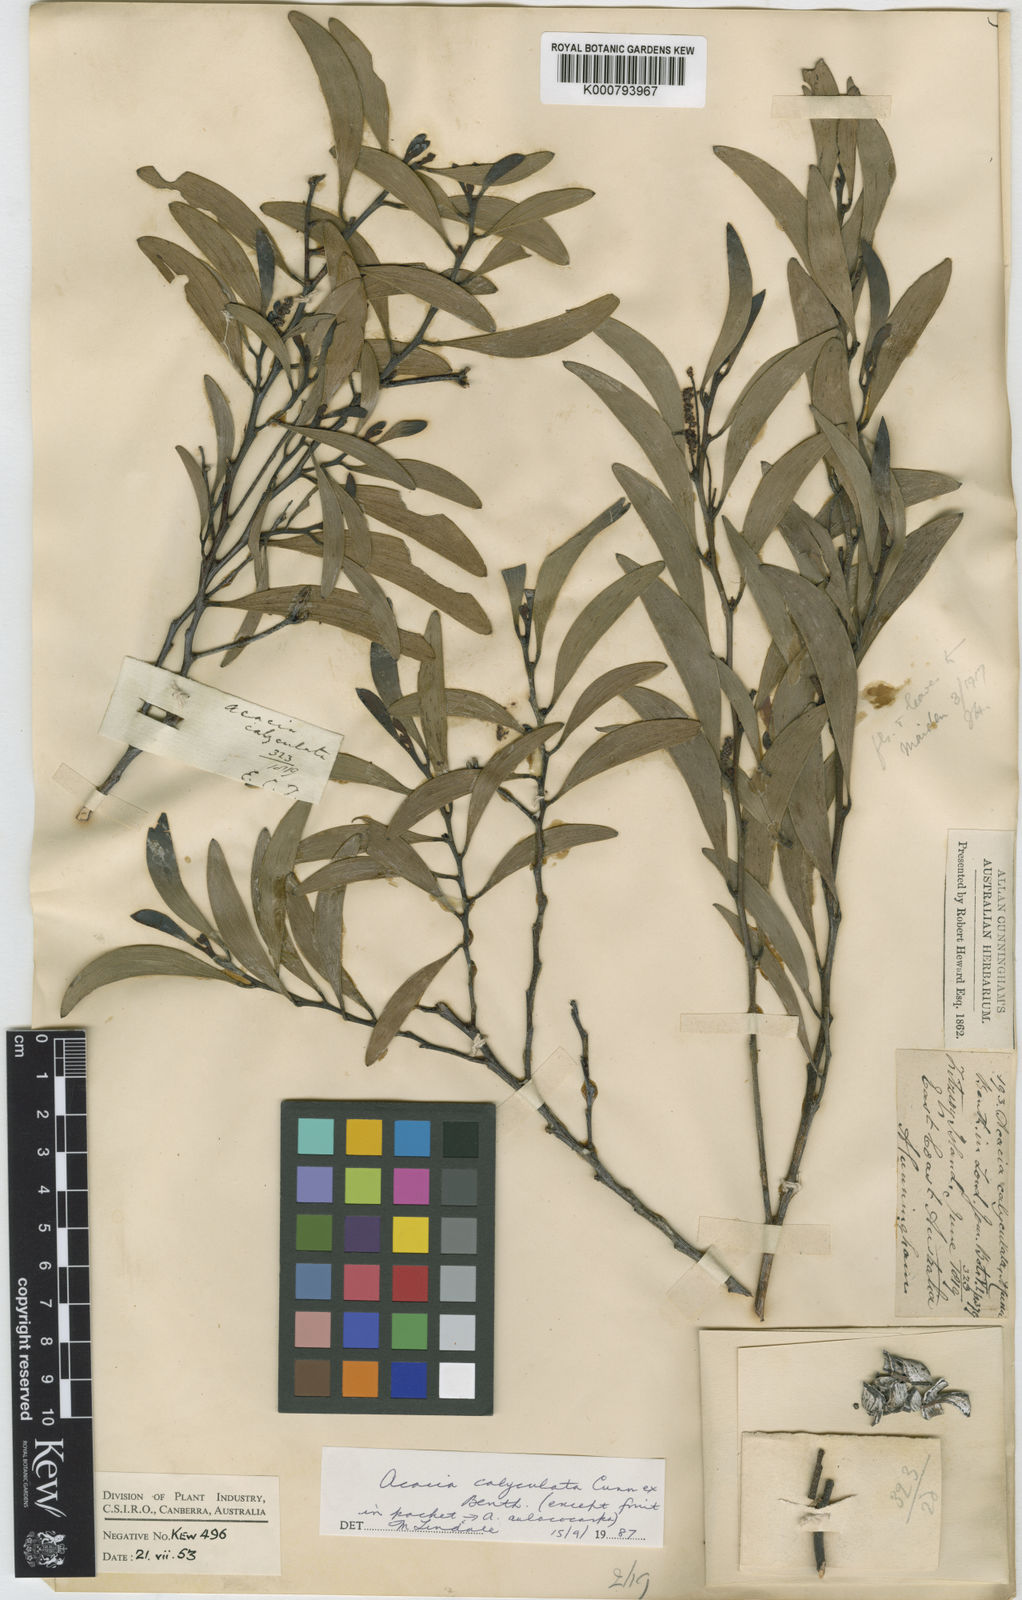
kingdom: Plantae
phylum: Tracheophyta
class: Magnoliopsida
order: Fabales
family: Fabaceae
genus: Acacia
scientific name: Acacia calyculata
